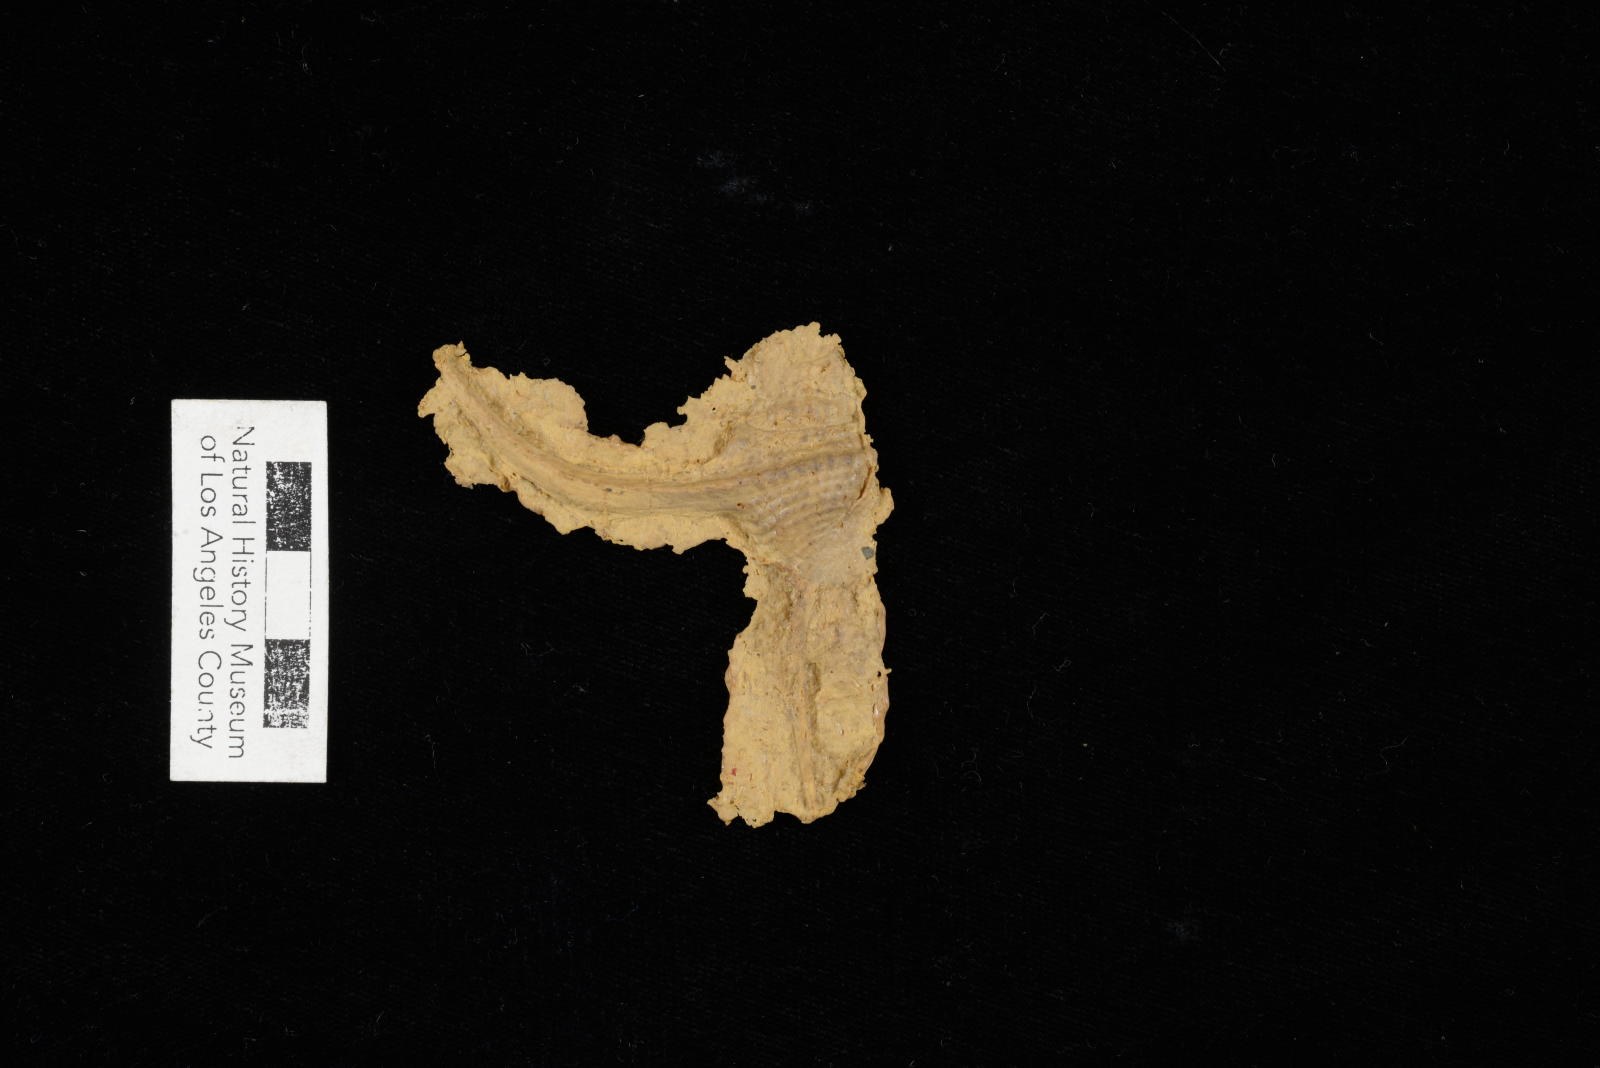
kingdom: Animalia
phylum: Mollusca
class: Gastropoda
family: Procerithiidae
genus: Procerithium
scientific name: Procerithium Uchauxia beali
